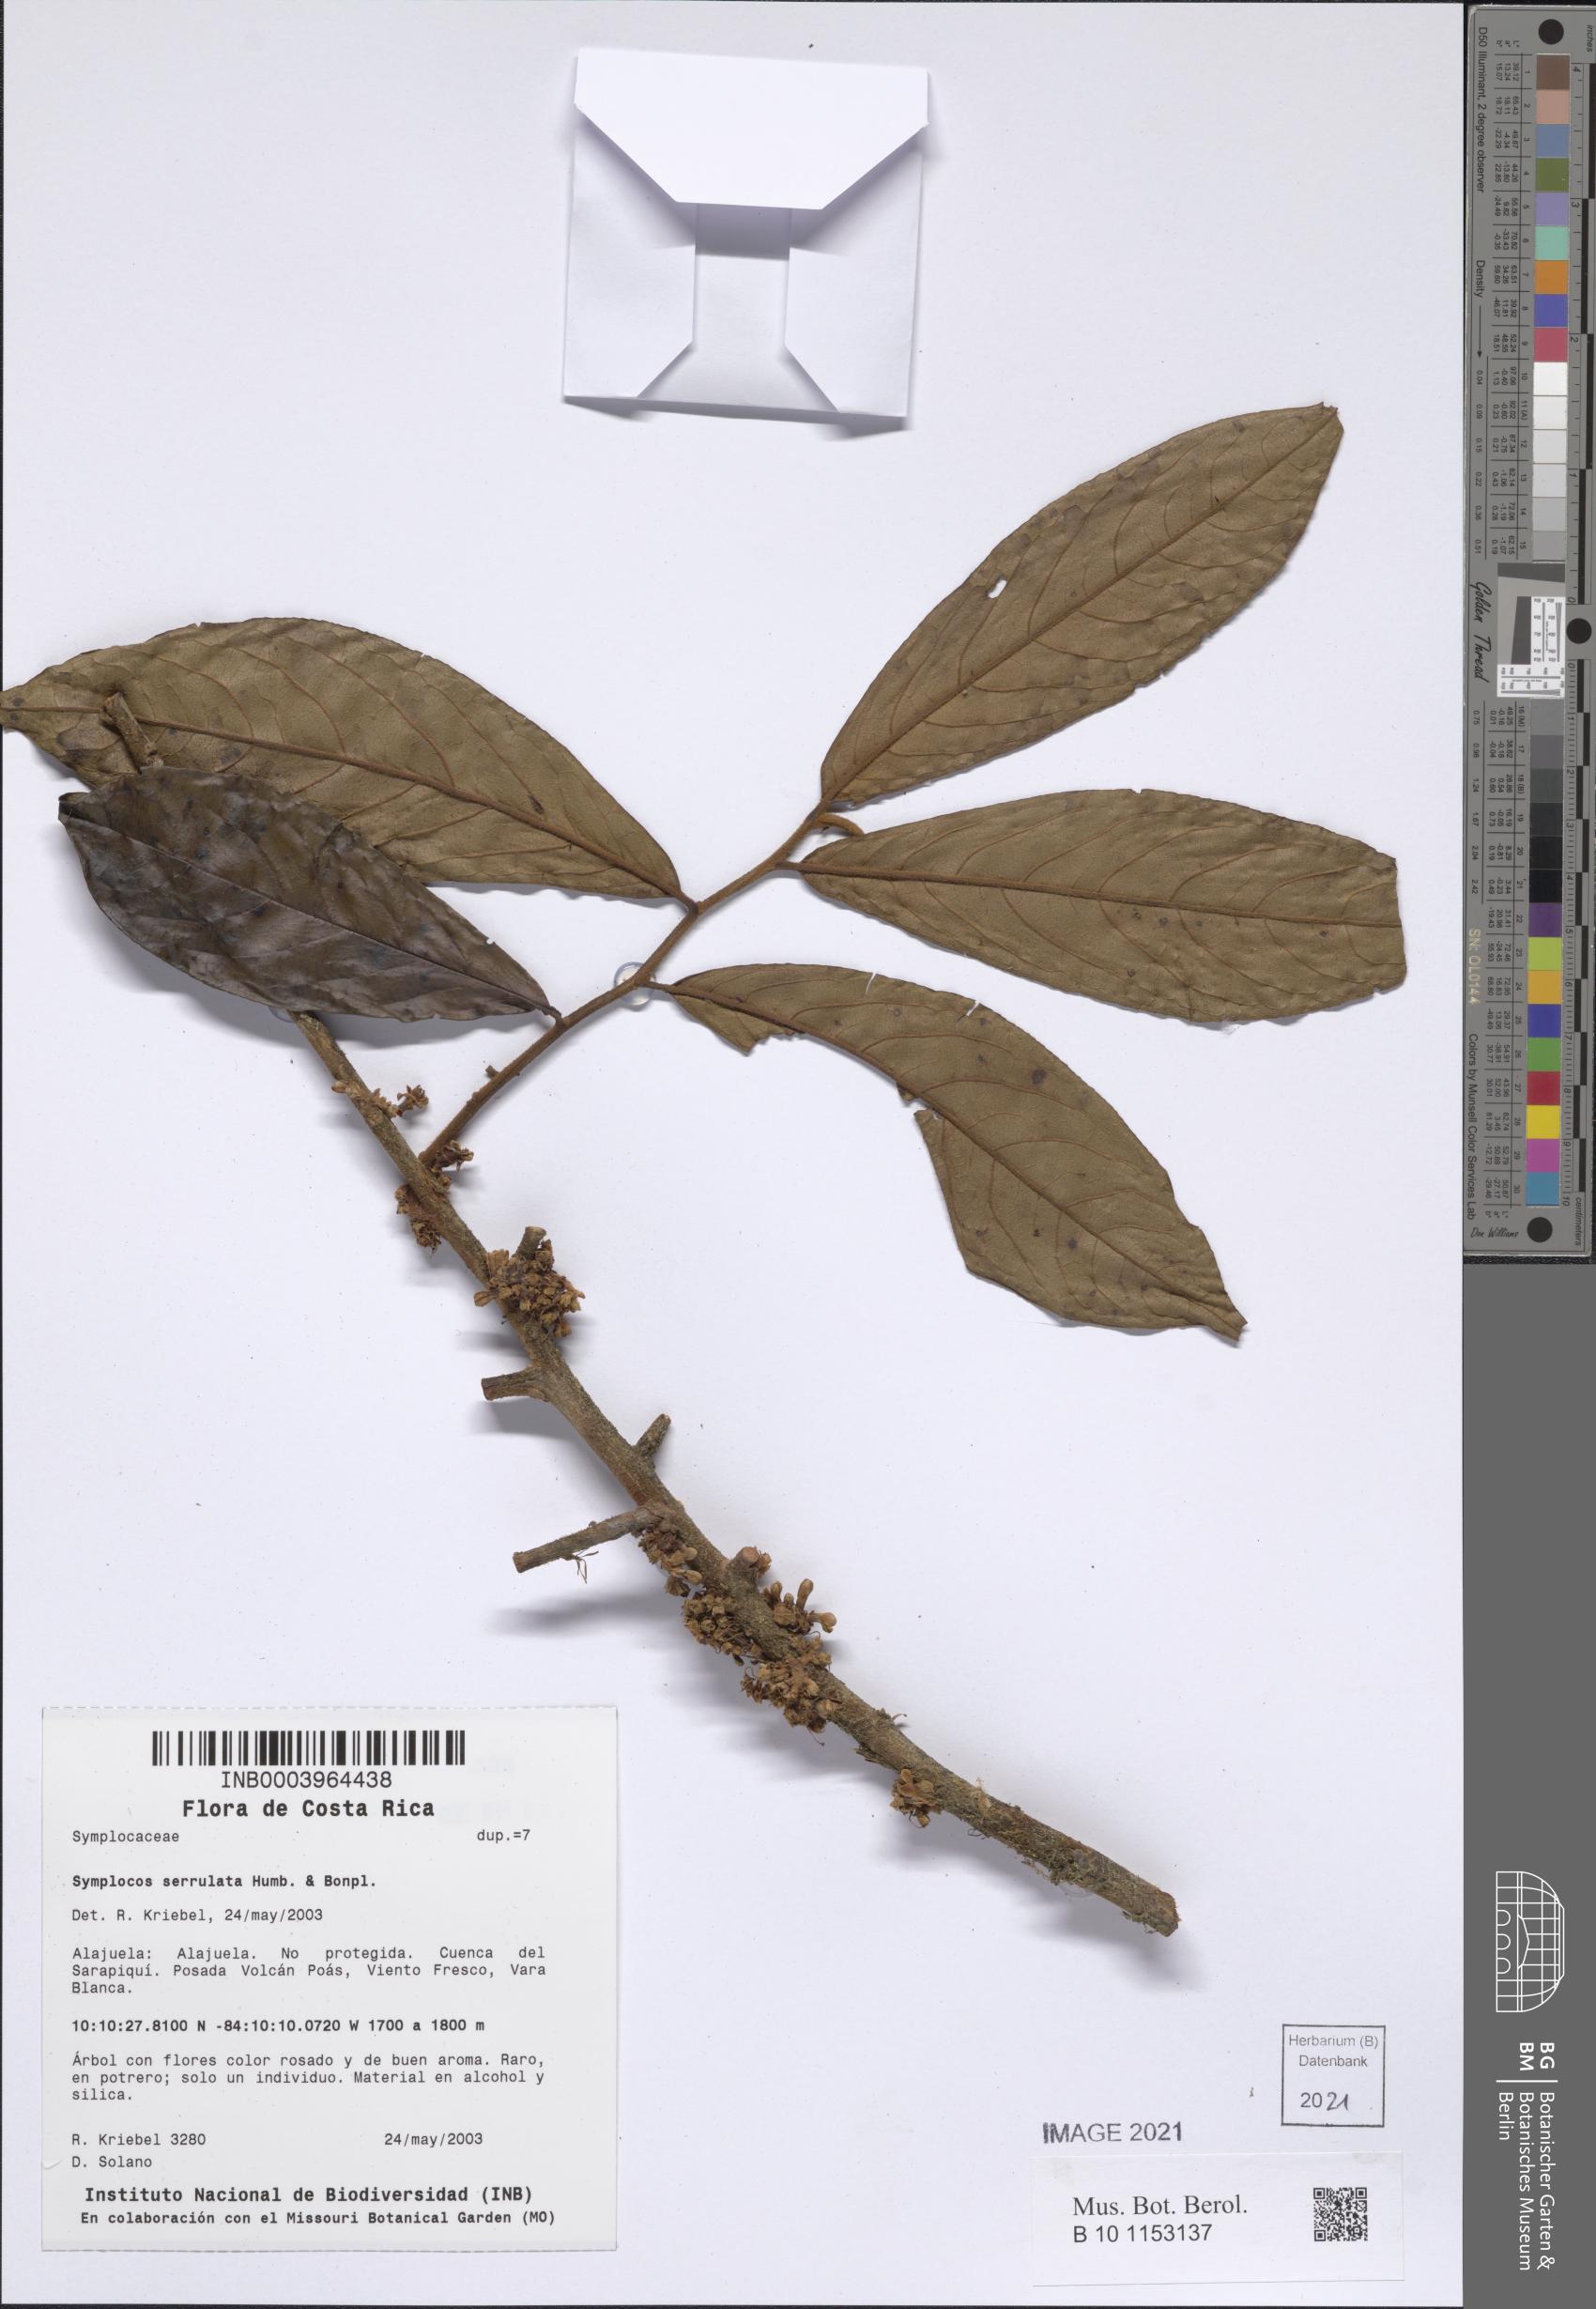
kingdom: Plantae
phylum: Tracheophyta
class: Magnoliopsida
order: Ericales
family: Symplocaceae
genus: Symplocos
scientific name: Symplocos serrulata
